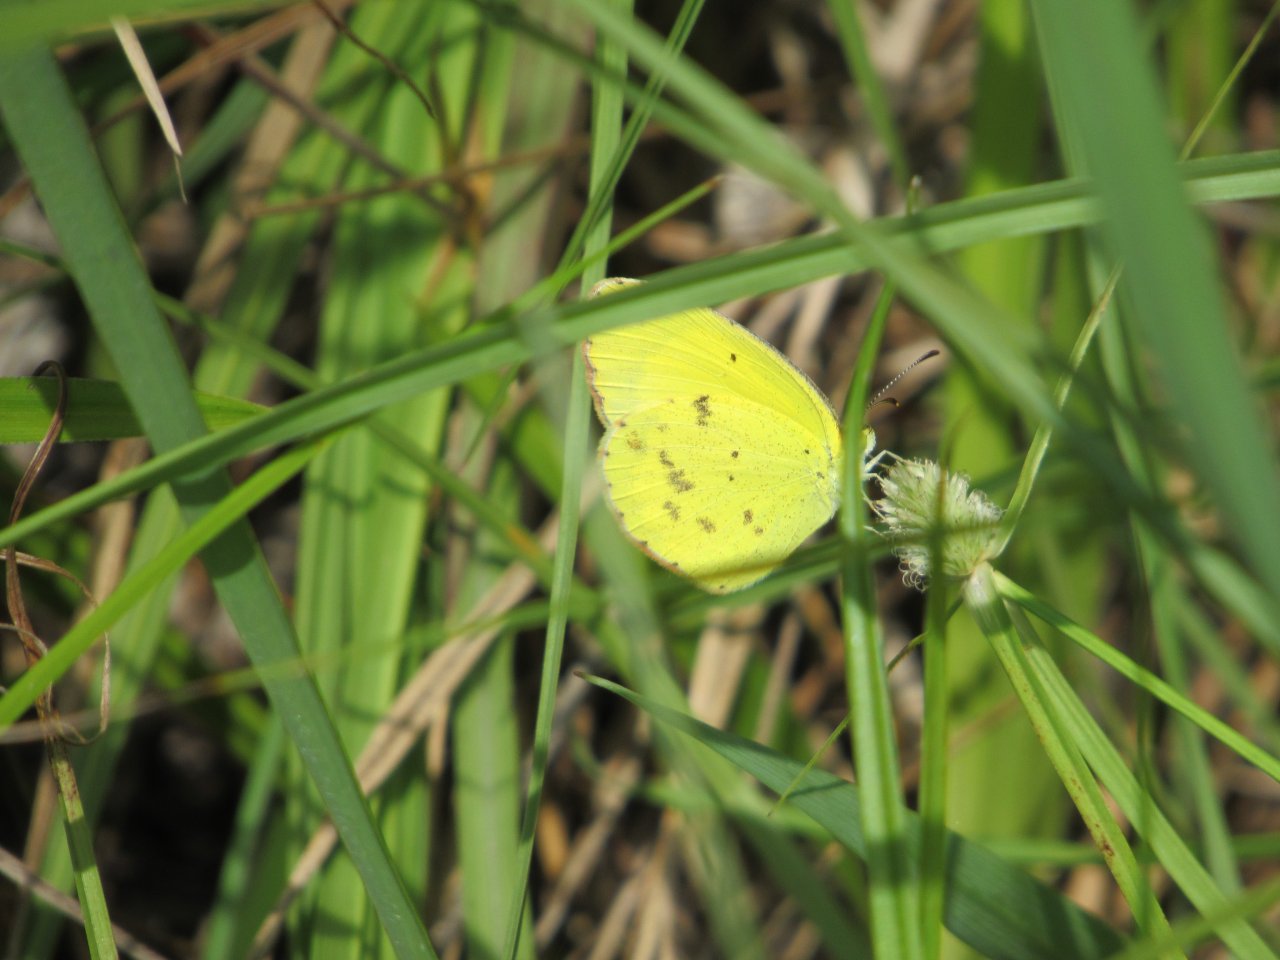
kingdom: Animalia
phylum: Arthropoda
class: Insecta
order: Lepidoptera
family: Pieridae
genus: Pyrisitia
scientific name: Pyrisitia lisa
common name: Little Yellow
